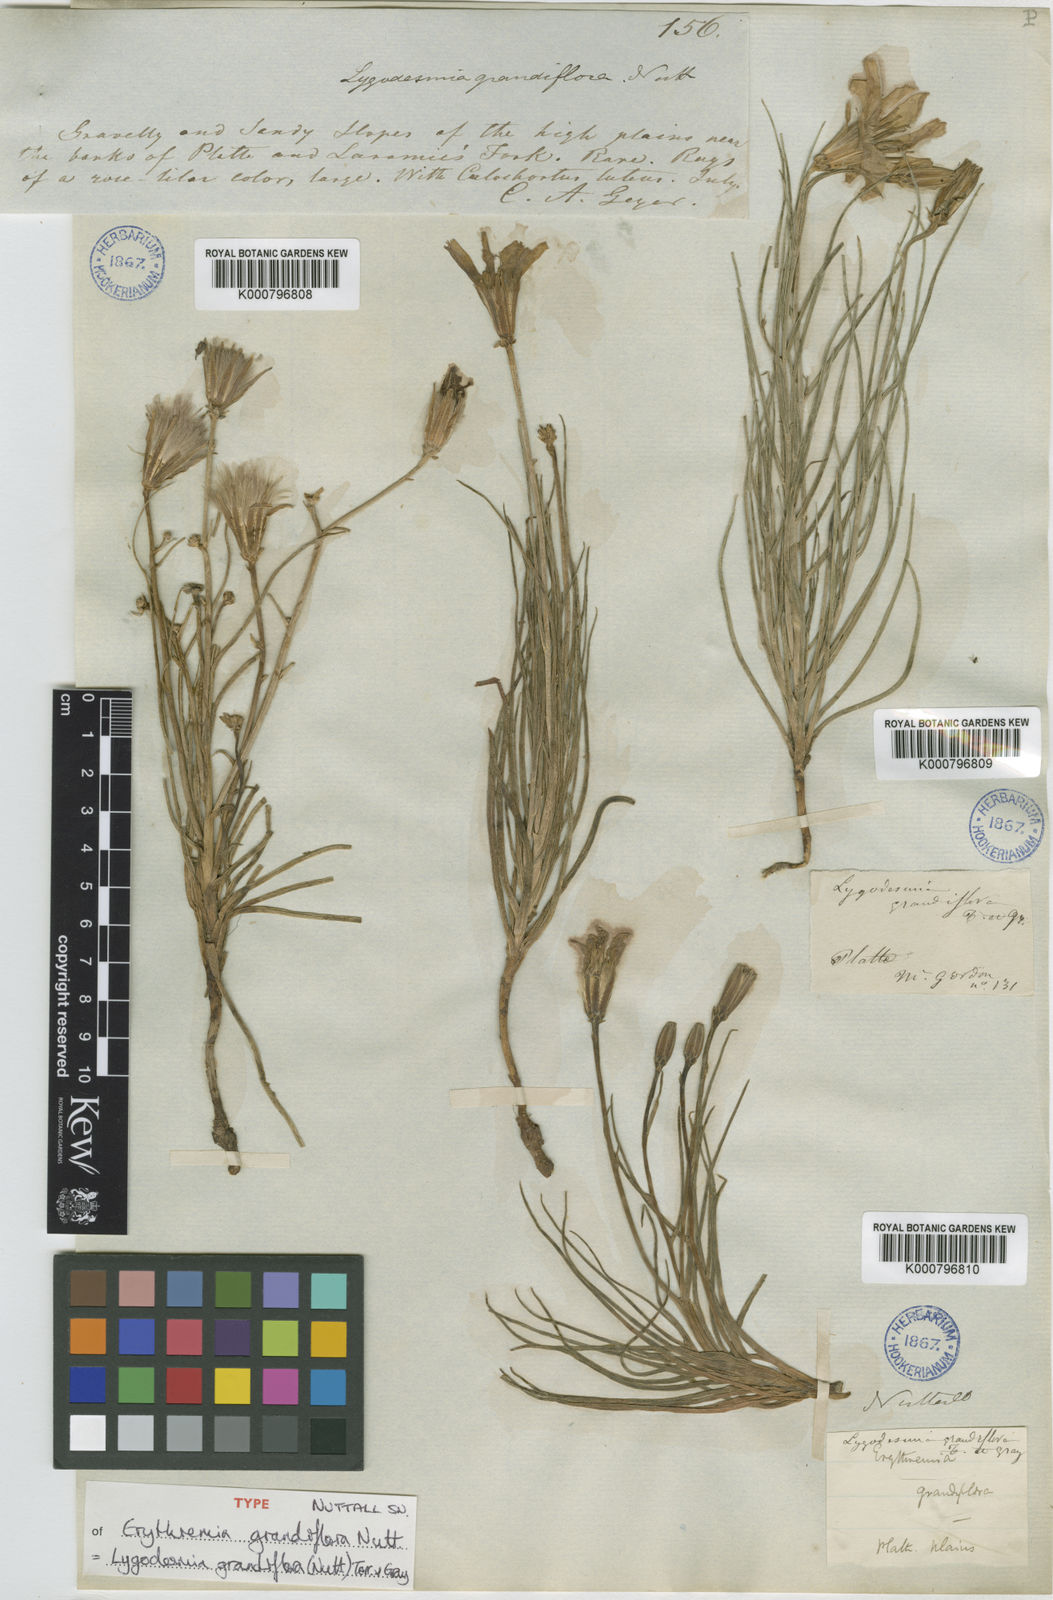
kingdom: Plantae
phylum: Tracheophyta
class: Magnoliopsida
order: Asterales
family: Asteraceae
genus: Lygodesmia
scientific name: Lygodesmia grandiflora
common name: Showy rush-pink
